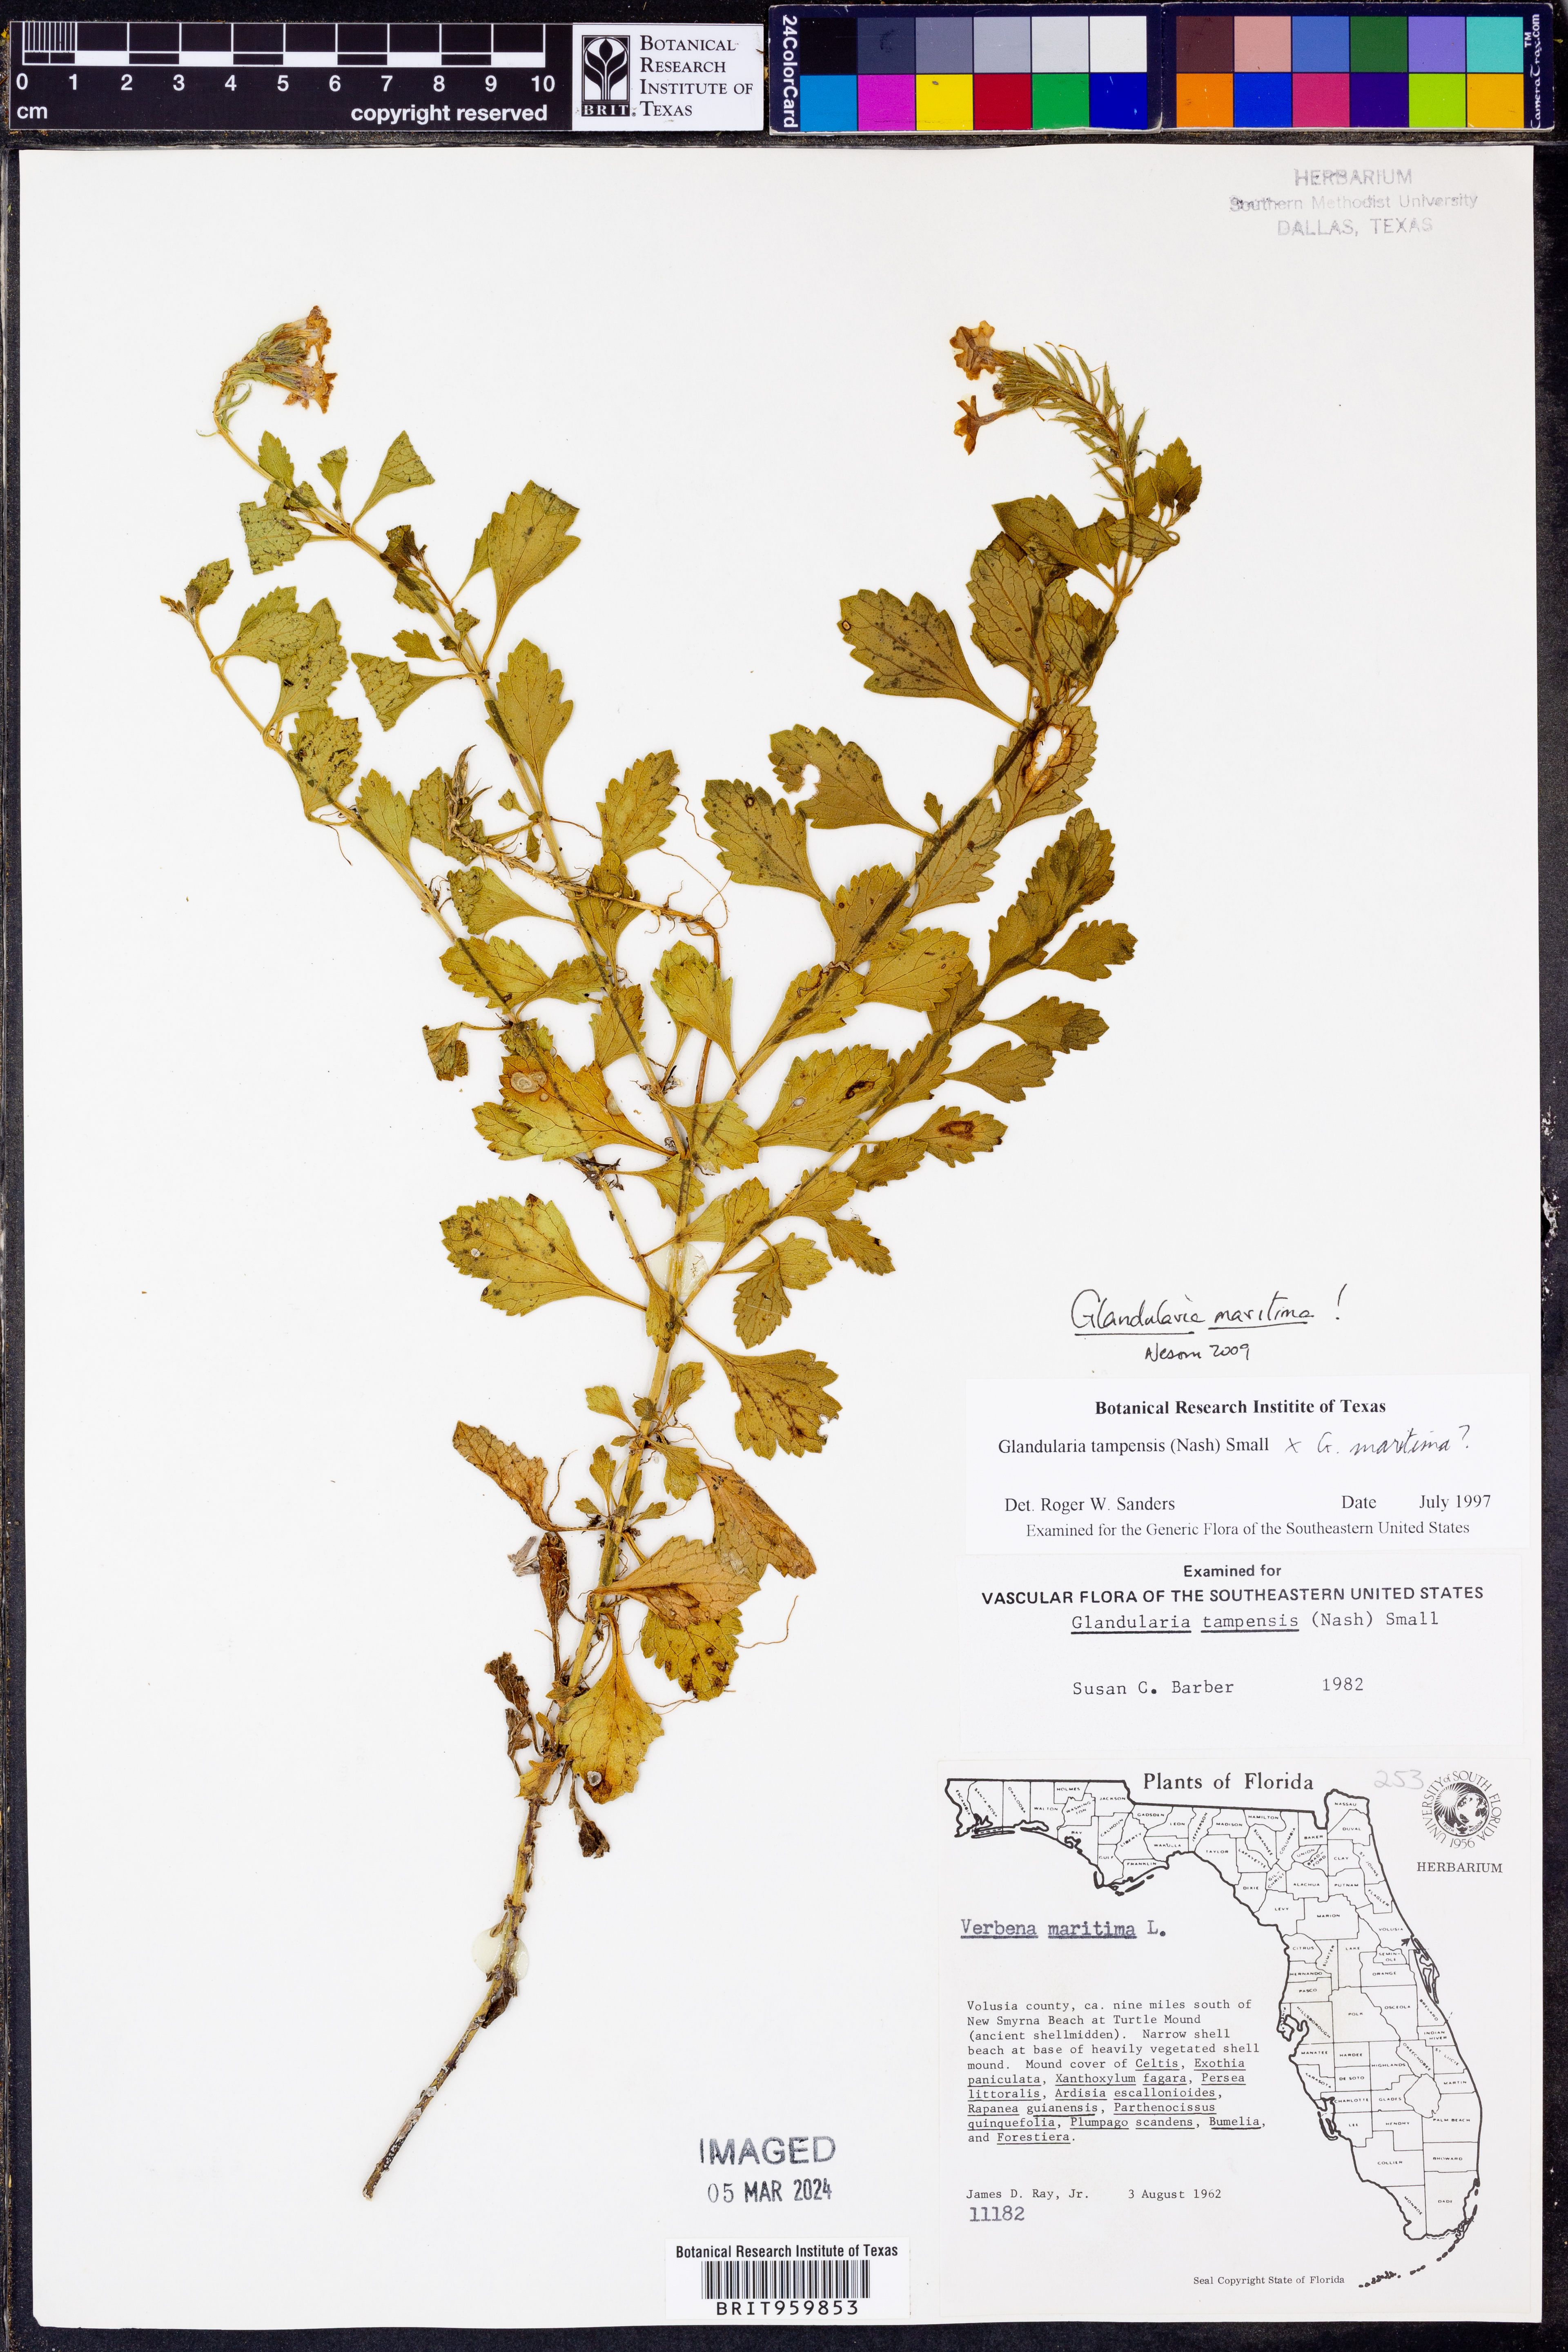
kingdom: Plantae
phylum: Tracheophyta
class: Magnoliopsida
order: Lamiales
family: Verbenaceae
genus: Verbena
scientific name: Verbena maritima
